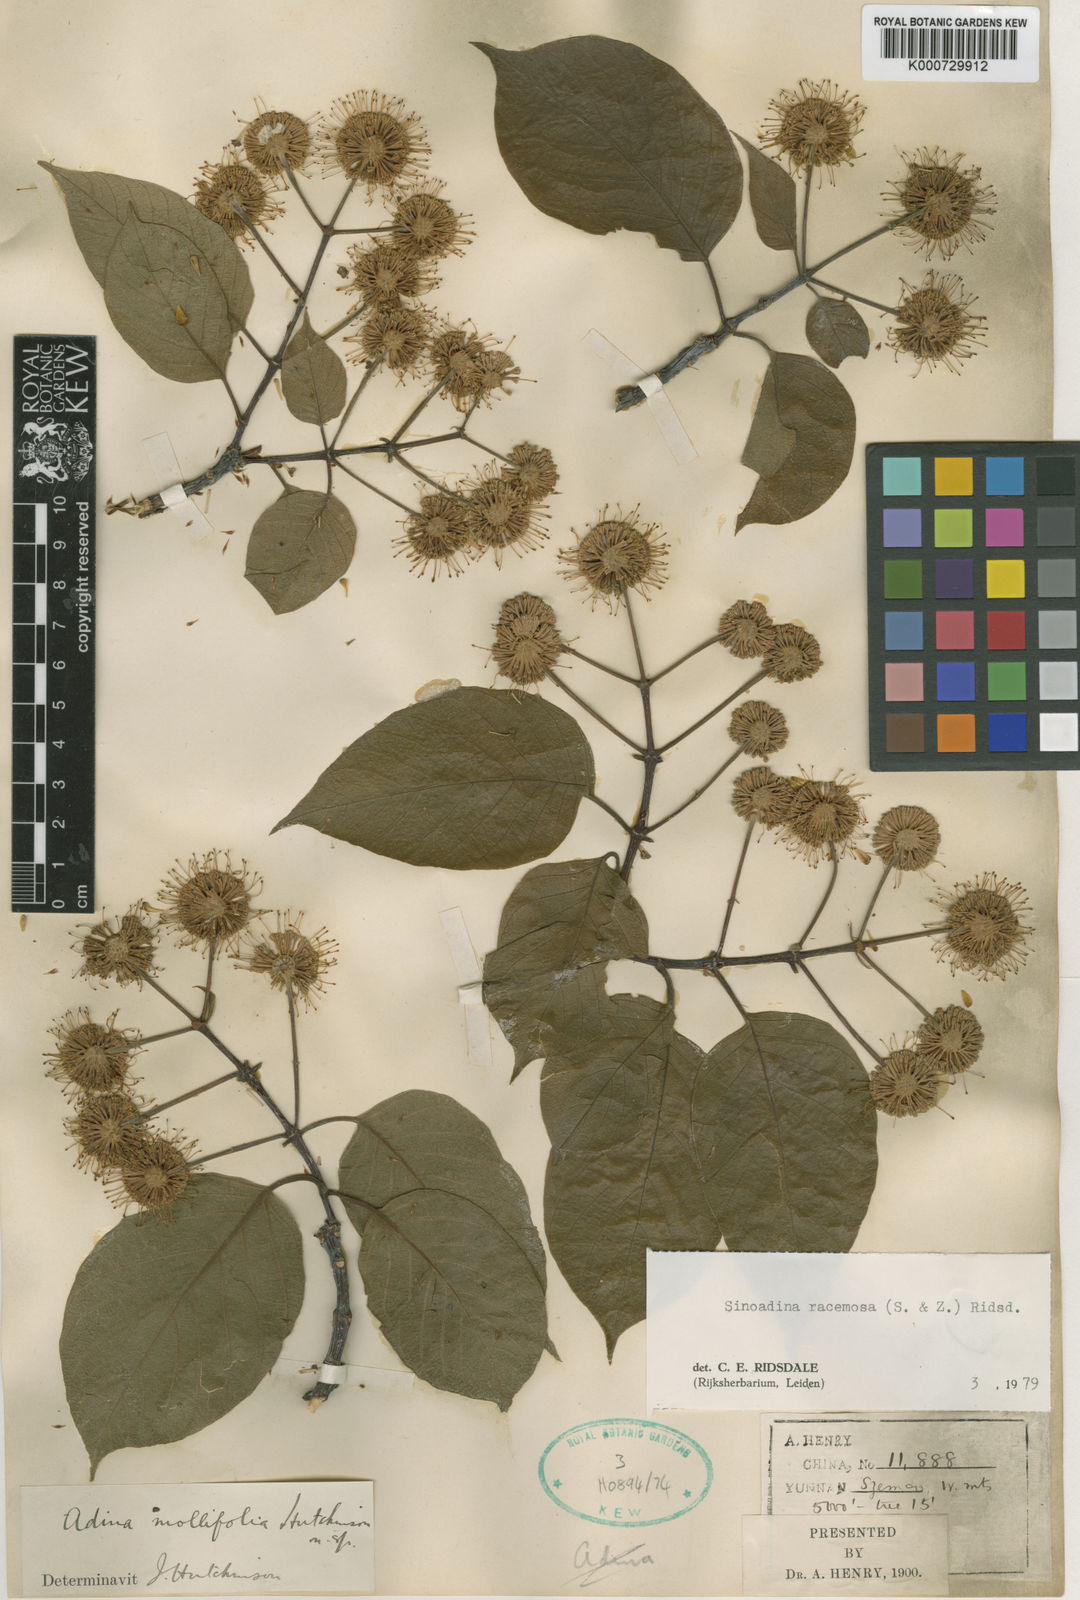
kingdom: Plantae
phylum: Tracheophyta
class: Magnoliopsida
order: Gentianales
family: Rubiaceae
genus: Adina
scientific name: Adina racemosa
